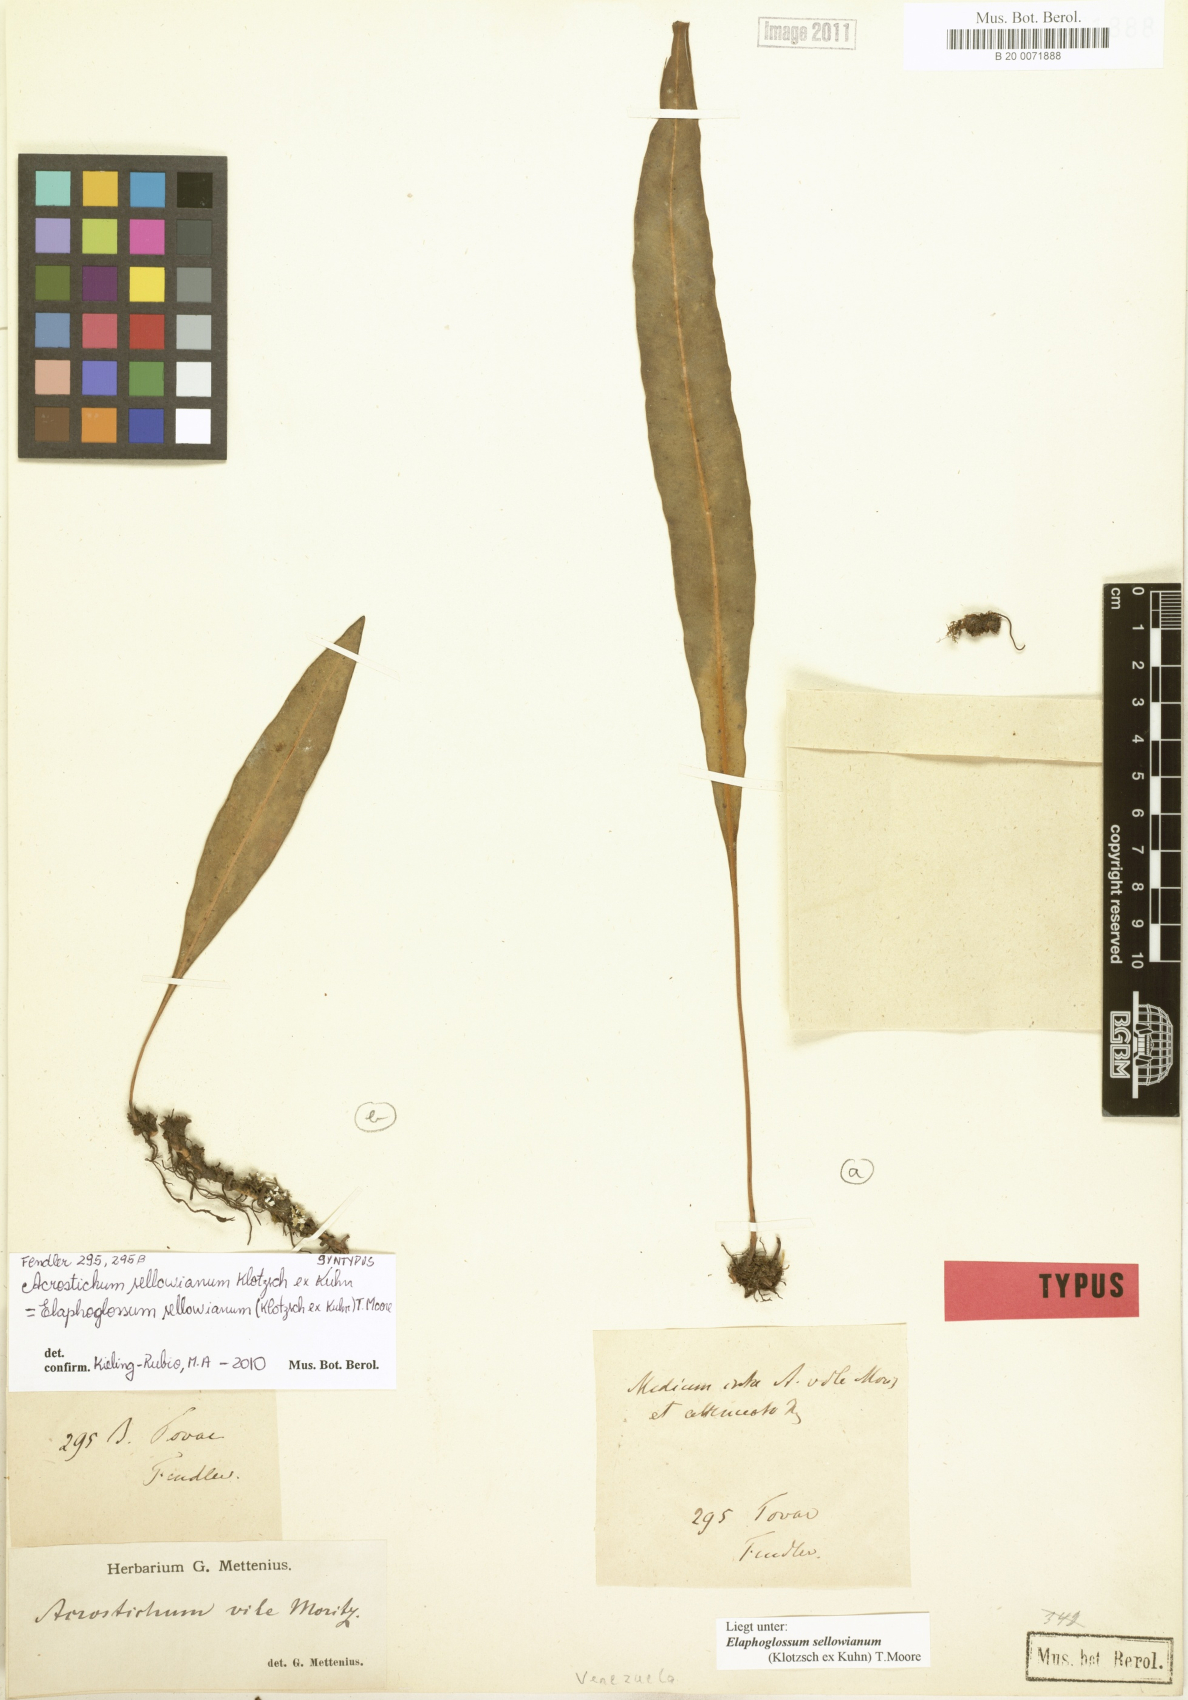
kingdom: Plantae
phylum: Tracheophyta
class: Polypodiopsida
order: Polypodiales
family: Dryopteridaceae
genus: Elaphoglossum
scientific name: Elaphoglossum sellowianum
